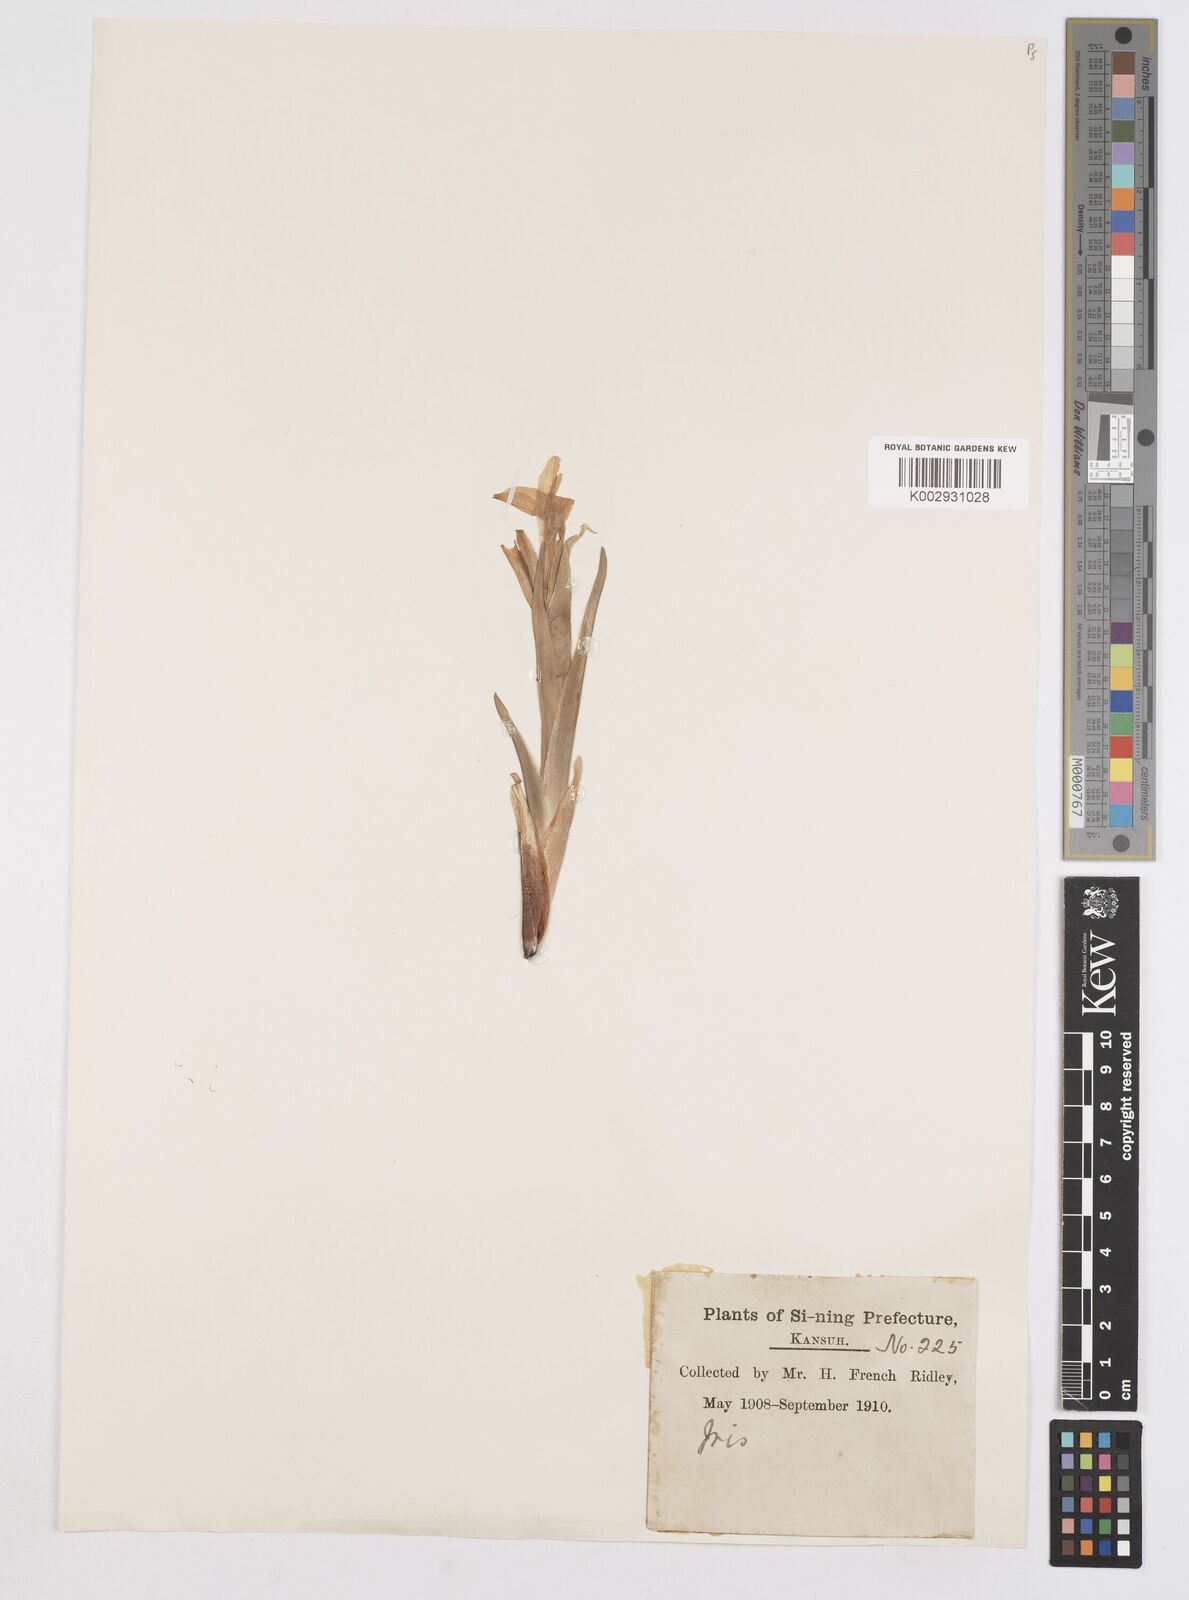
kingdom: Plantae
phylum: Tracheophyta
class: Liliopsida
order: Asparagales
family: Iridaceae
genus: Iris
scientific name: Iris
